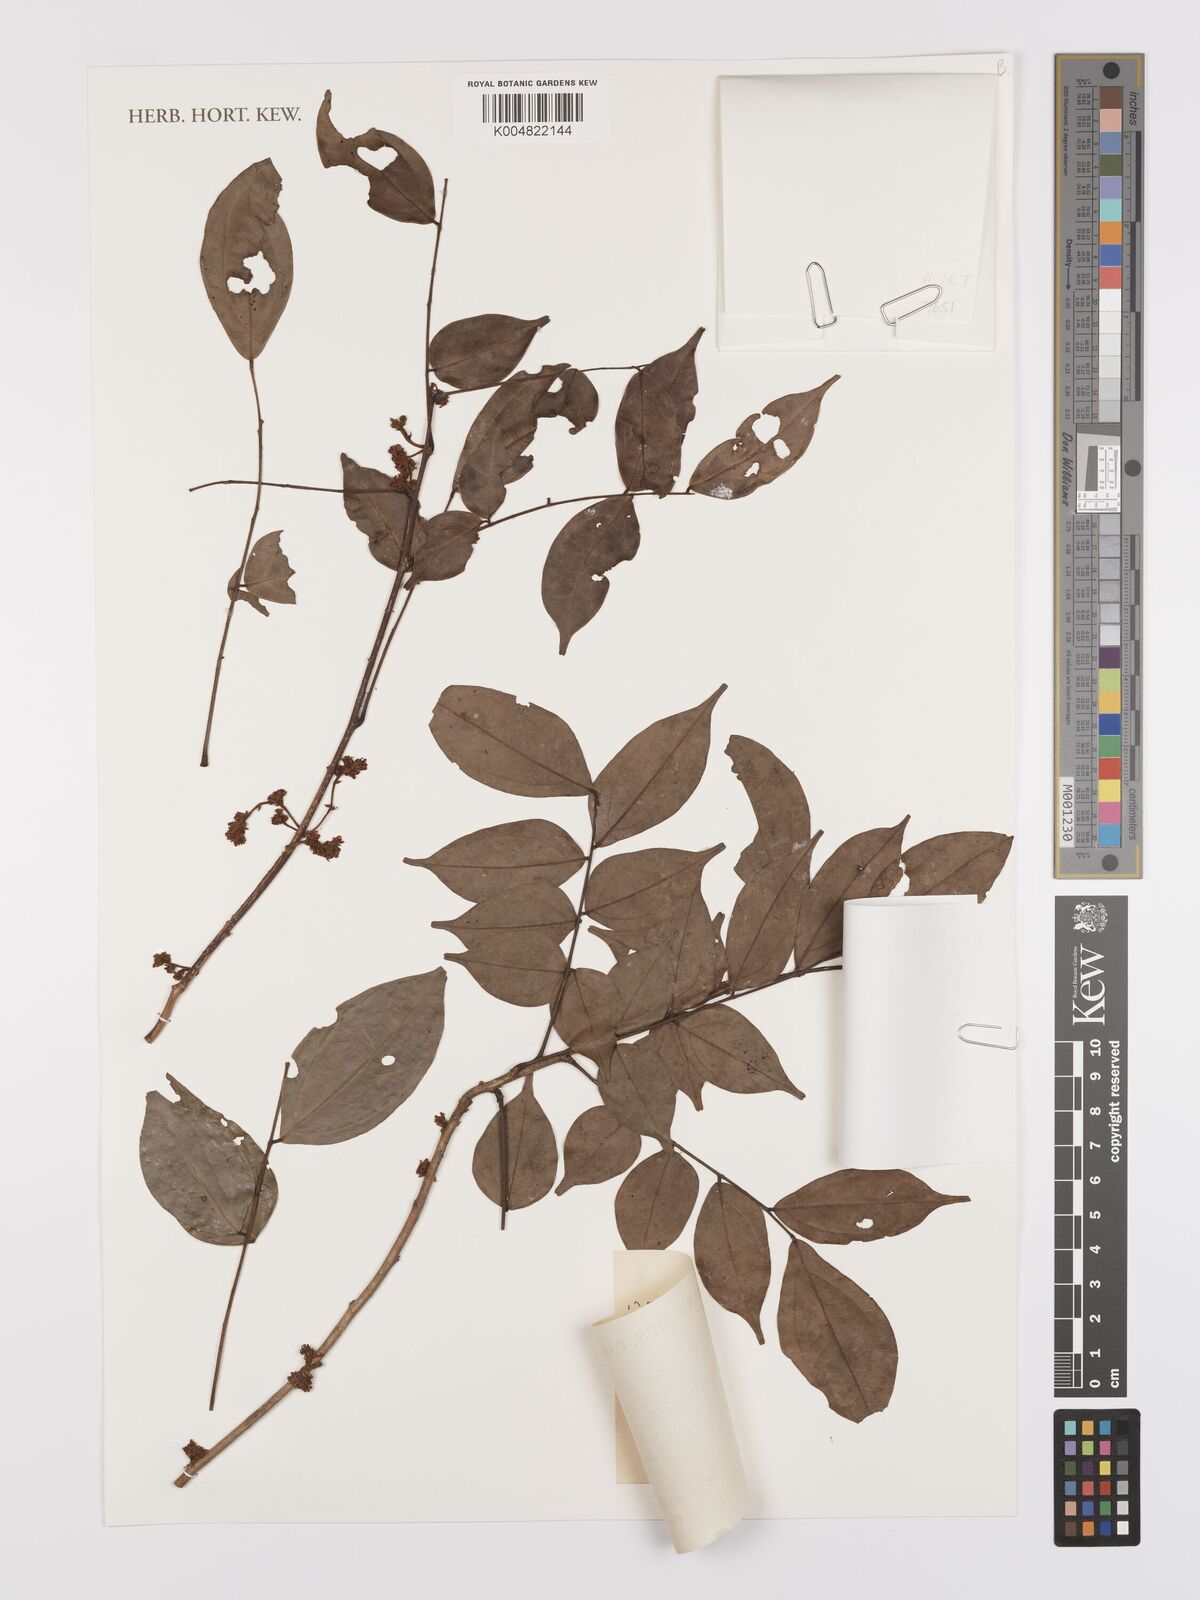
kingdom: Plantae
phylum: Tracheophyta
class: Magnoliopsida
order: Oxalidales
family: Connaraceae
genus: Rourea
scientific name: Rourea erythrocalyx
